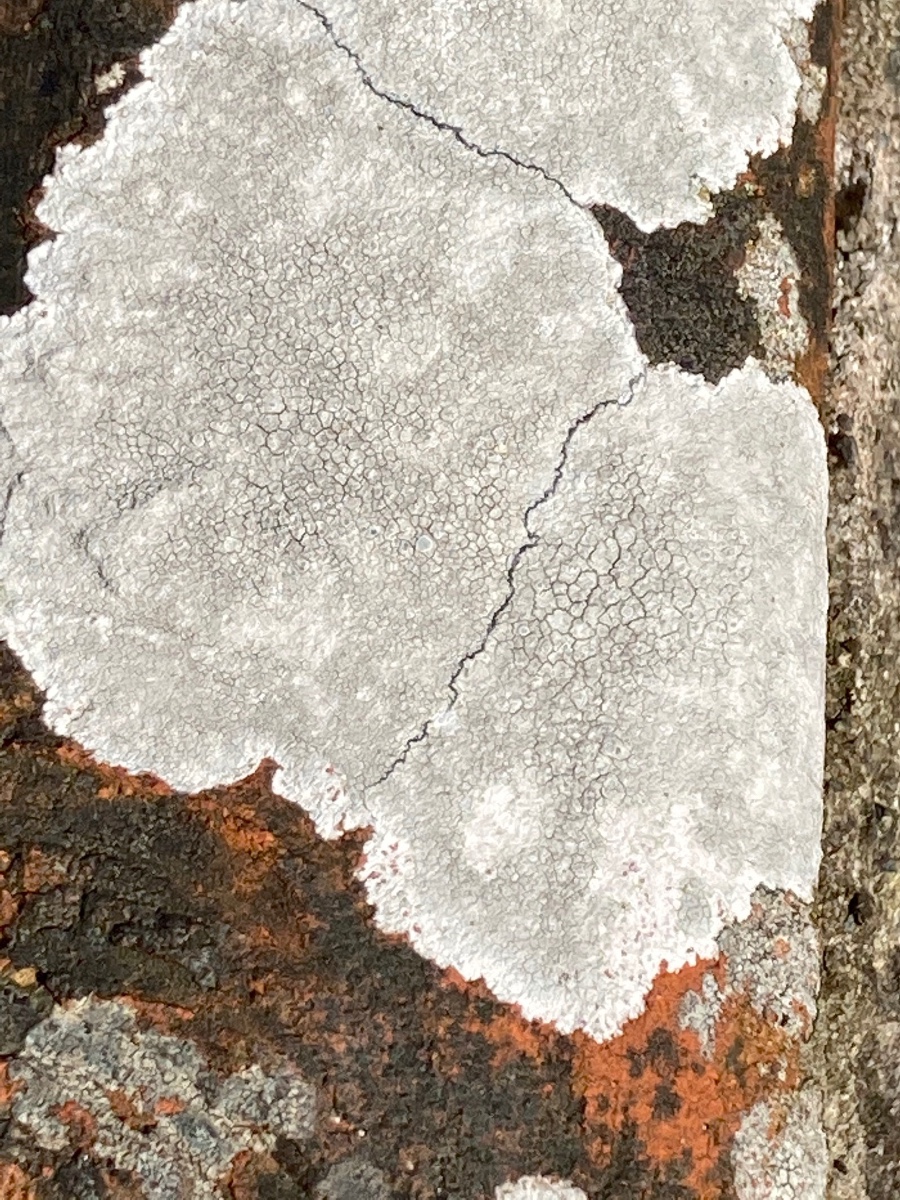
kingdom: Fungi
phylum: Ascomycota
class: Lecanoromycetes
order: Lecanorales
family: Lecanoraceae
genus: Glaucomaria
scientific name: Glaucomaria rupicola
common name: stengærde-kantskivelav
